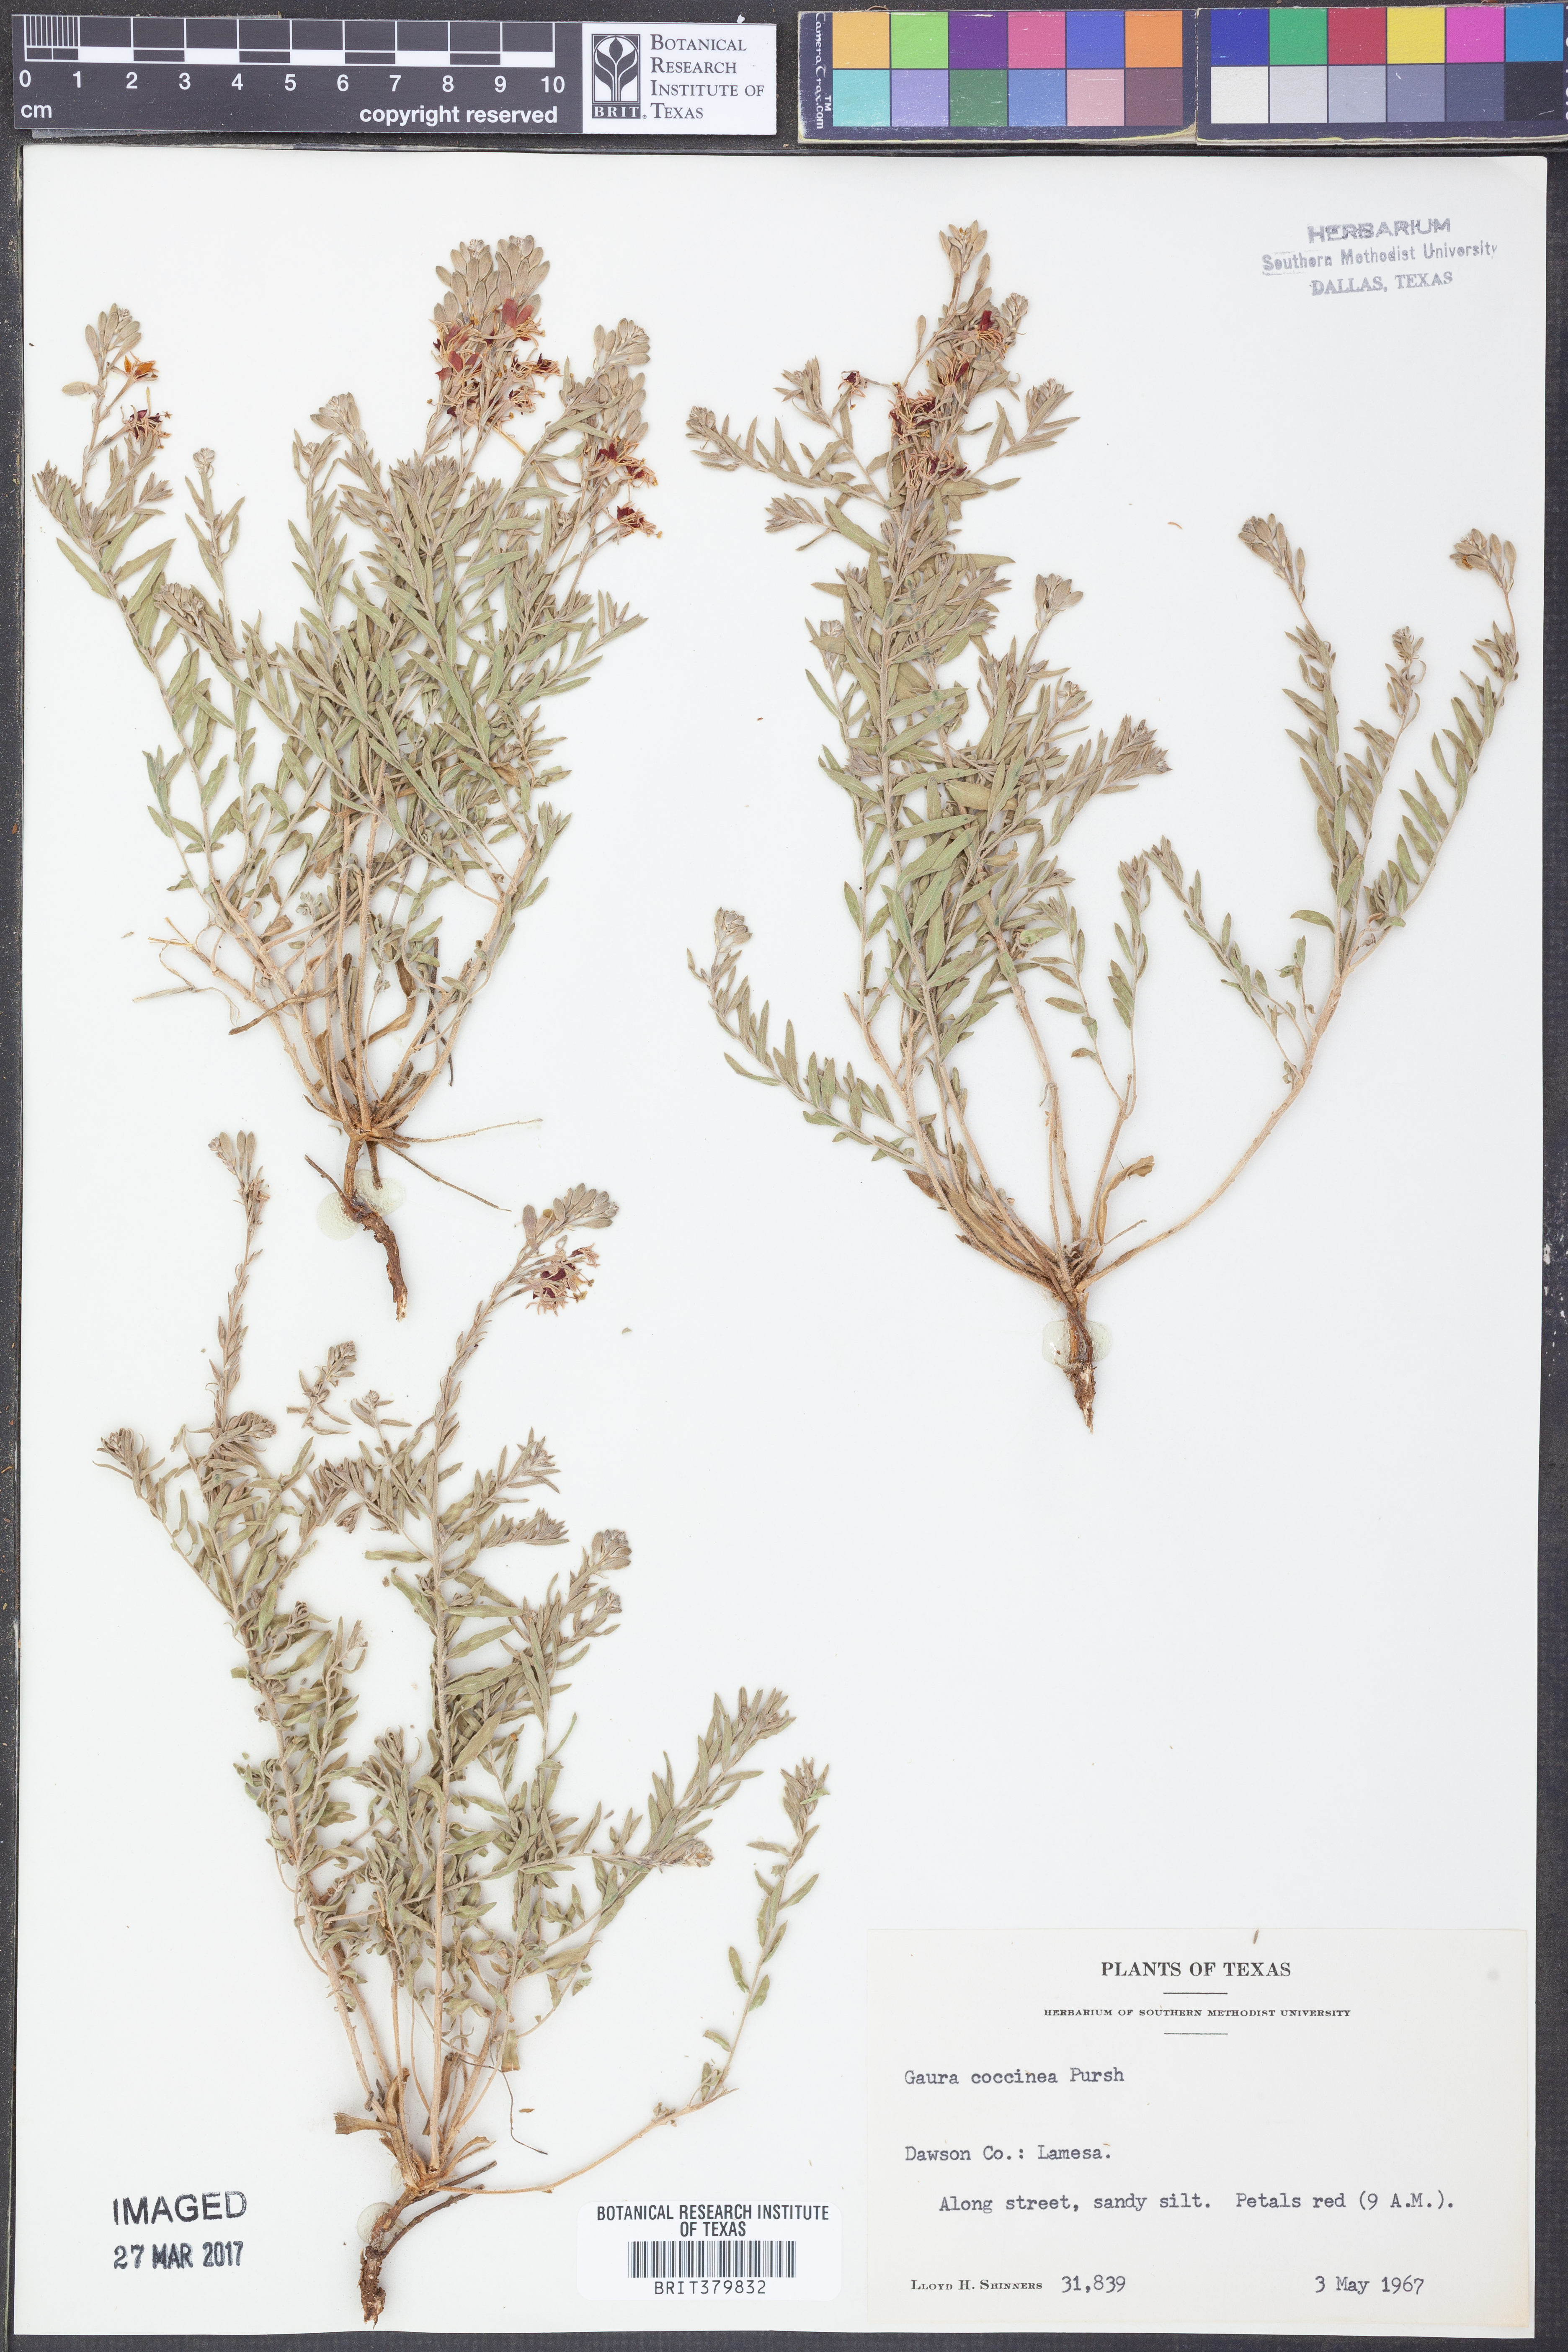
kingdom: Plantae
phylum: Tracheophyta
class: Magnoliopsida
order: Myrtales
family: Onagraceae
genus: Oenothera
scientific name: Oenothera suffrutescens
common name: Scarlet beeblossom
